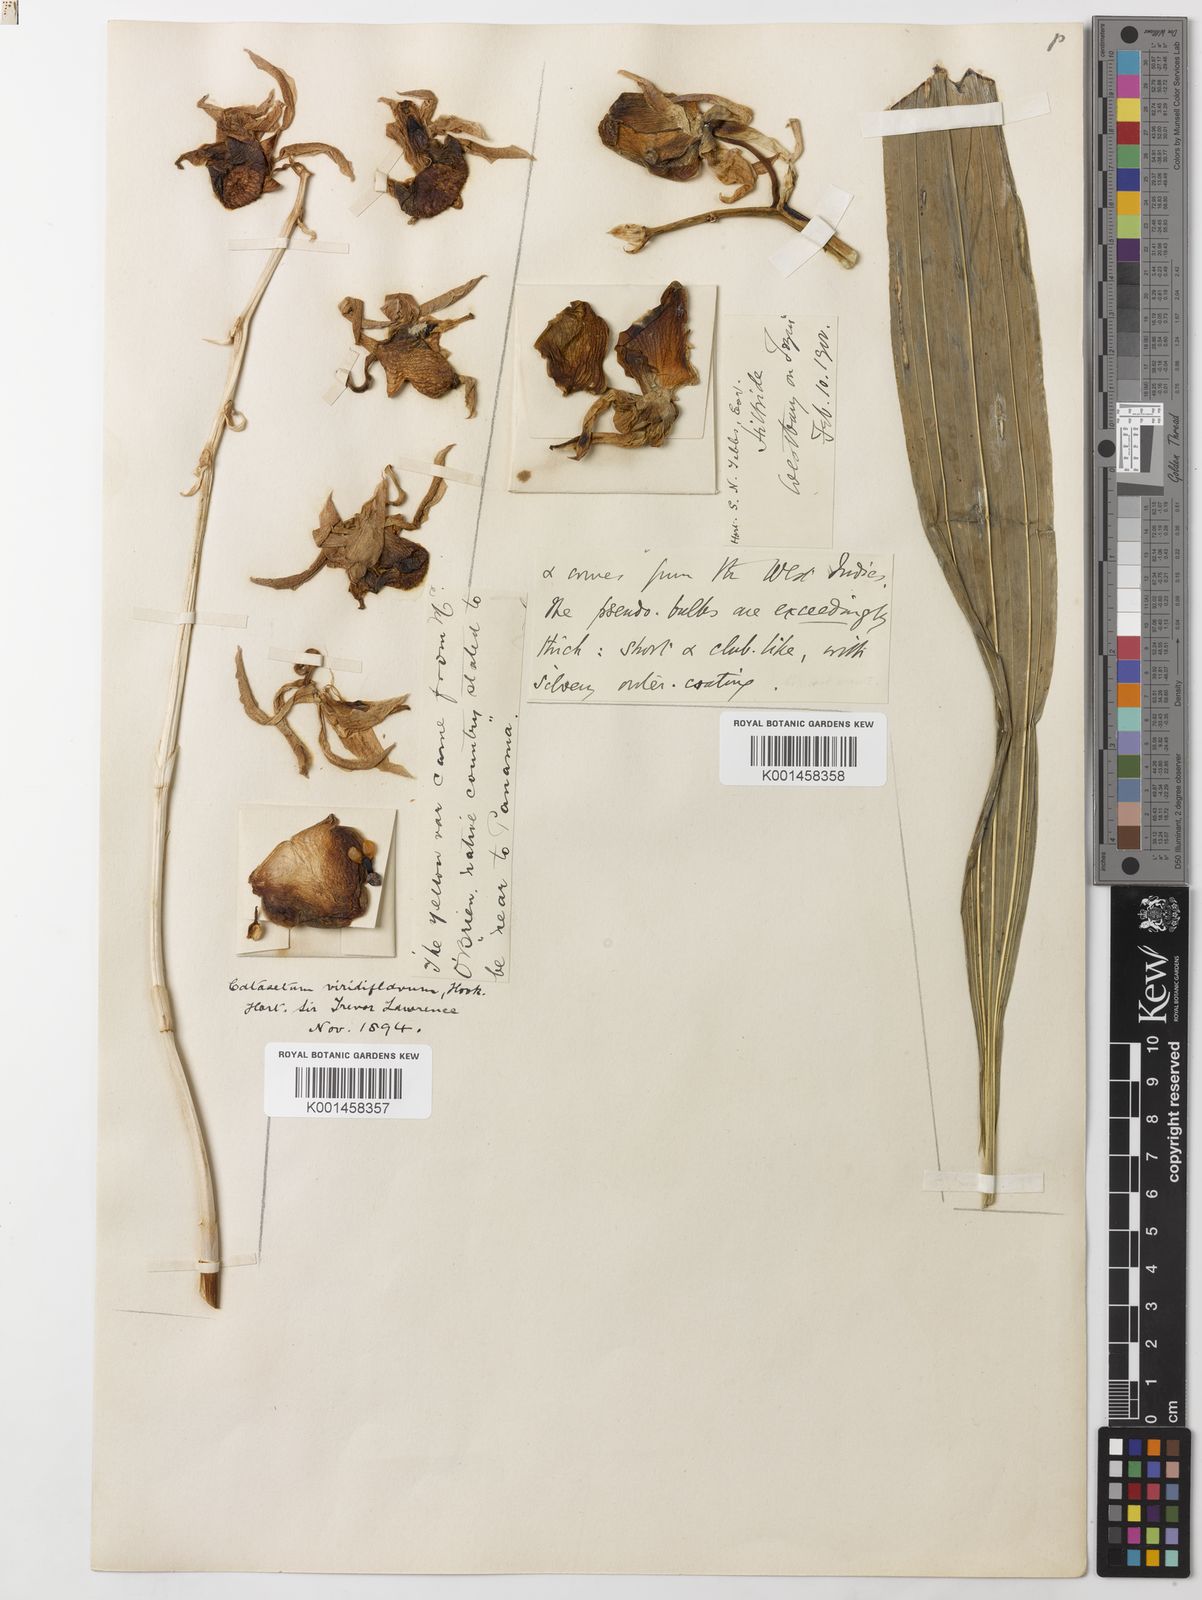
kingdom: Plantae
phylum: Tracheophyta
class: Liliopsida
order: Asparagales
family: Orchidaceae
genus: Catasetum
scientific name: Catasetum viridiflavum
